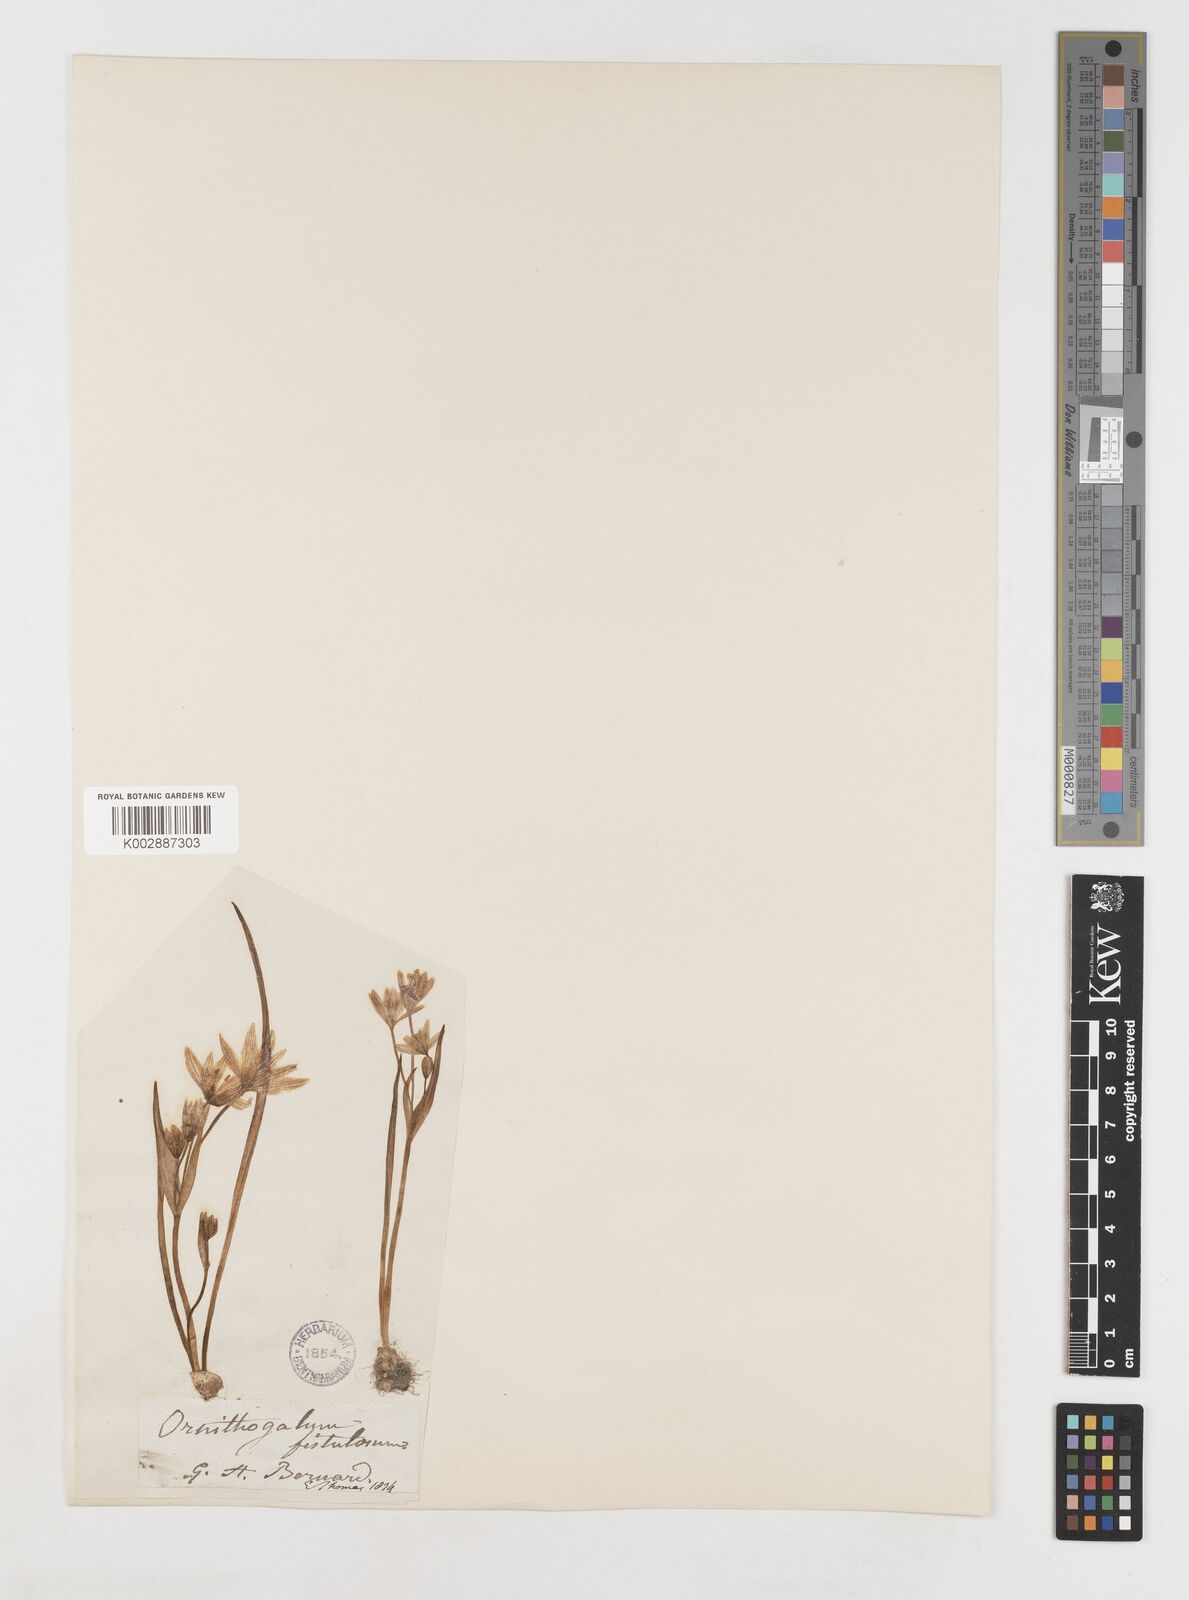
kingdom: Plantae
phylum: Tracheophyta
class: Liliopsida
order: Liliales
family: Liliaceae
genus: Gagea
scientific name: Gagea bohemica
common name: Early star-of-bethlehem
